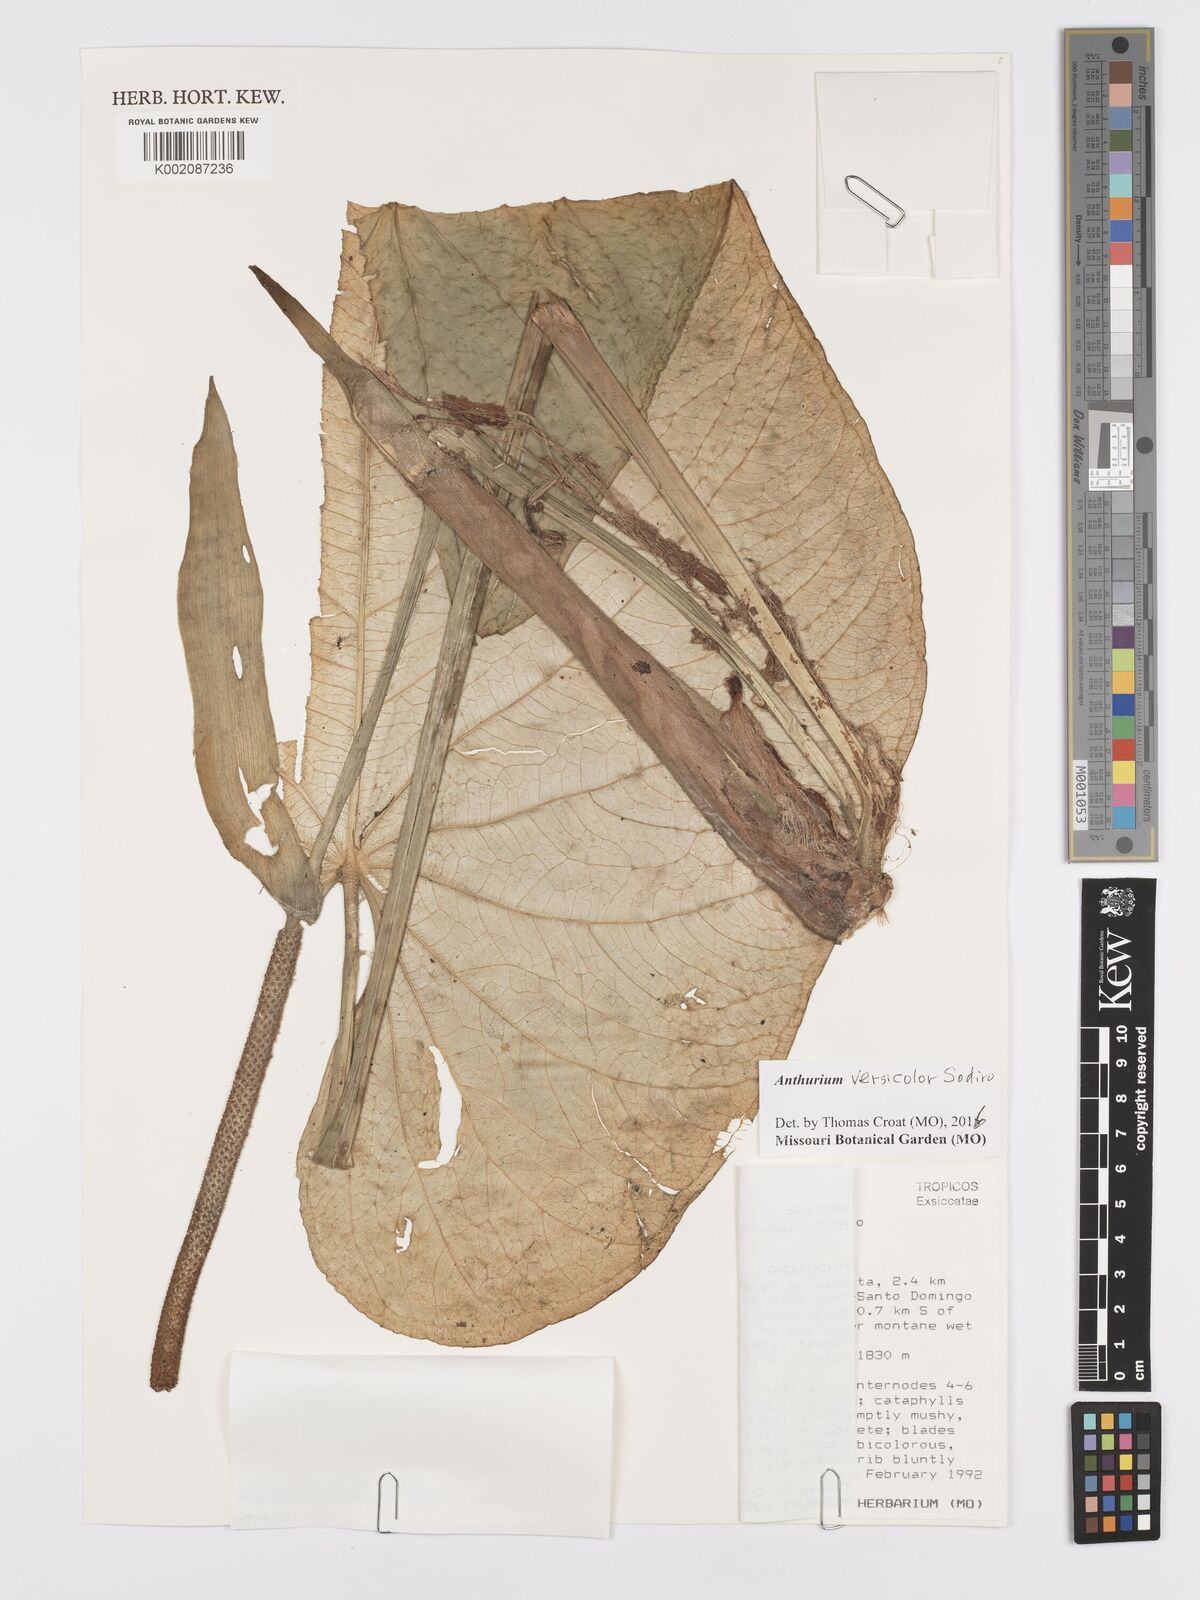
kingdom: Plantae
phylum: Tracheophyta
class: Liliopsida
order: Alismatales
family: Araceae
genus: Anthurium
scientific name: Anthurium versicolor
